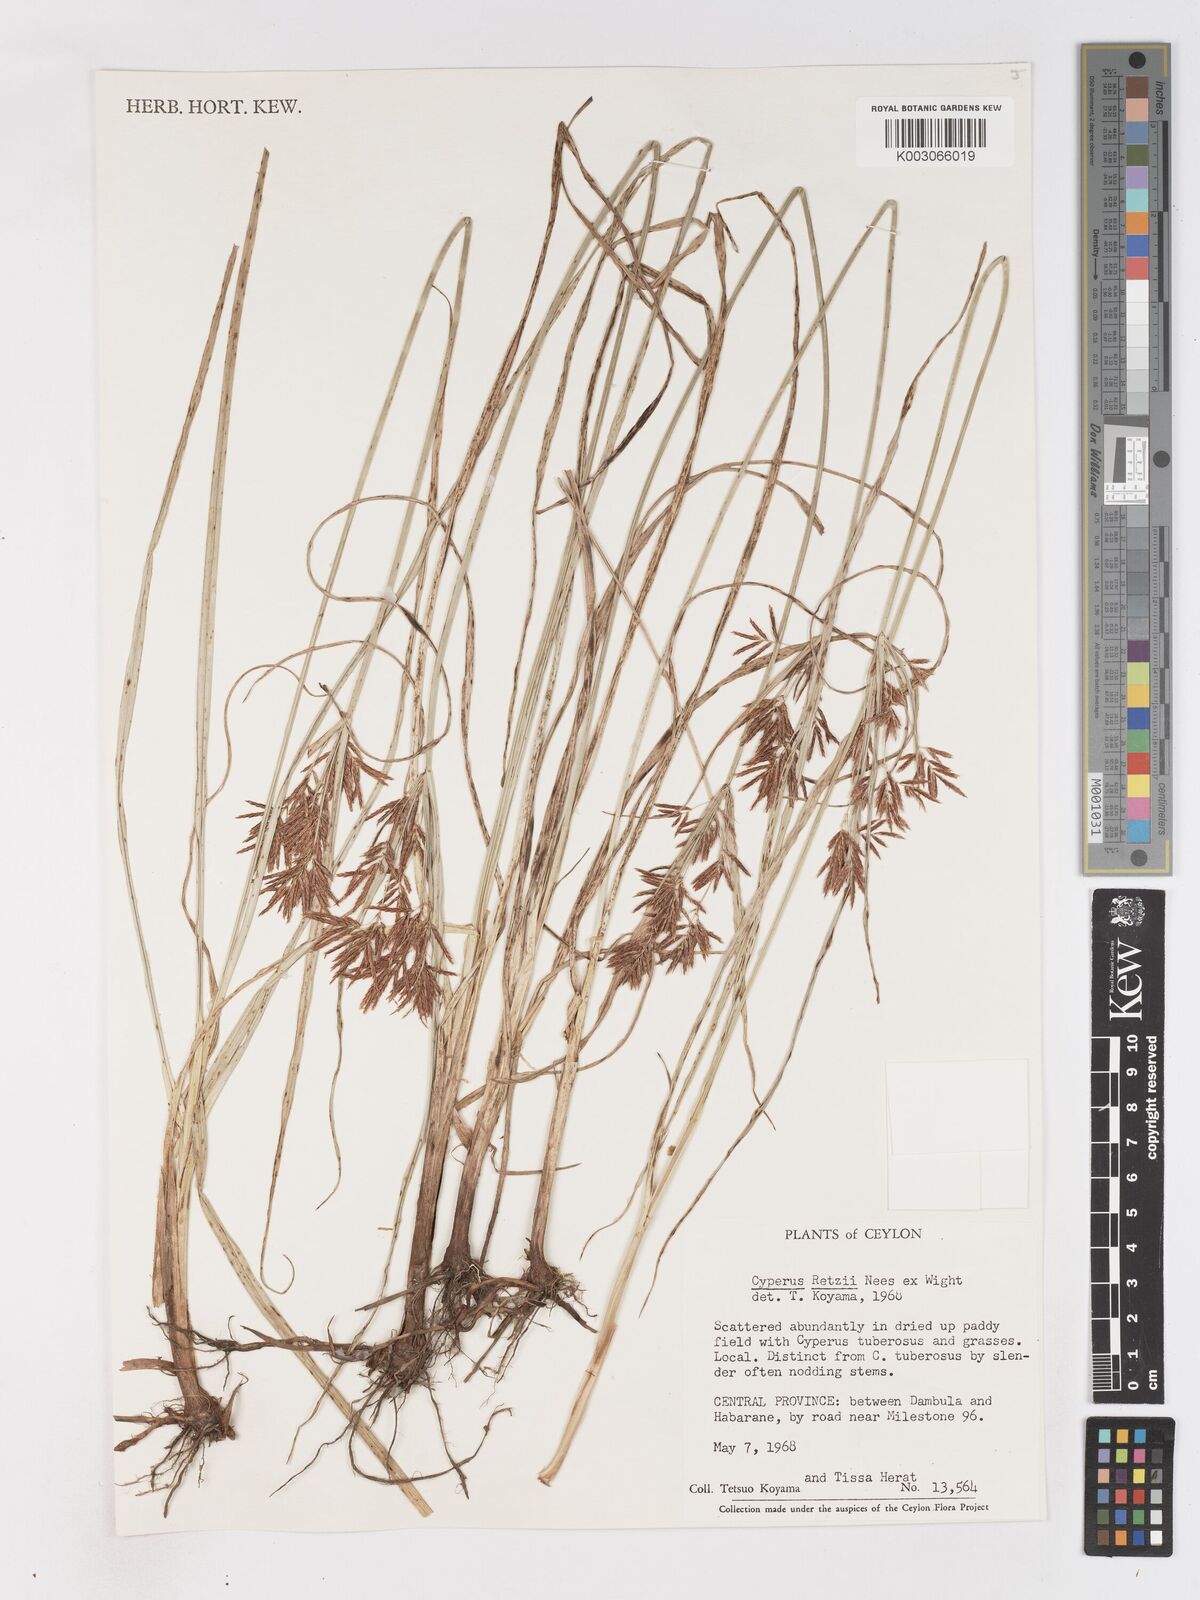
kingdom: Plantae
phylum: Tracheophyta
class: Liliopsida
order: Poales
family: Cyperaceae
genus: Cyperus
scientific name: Cyperus mitis
